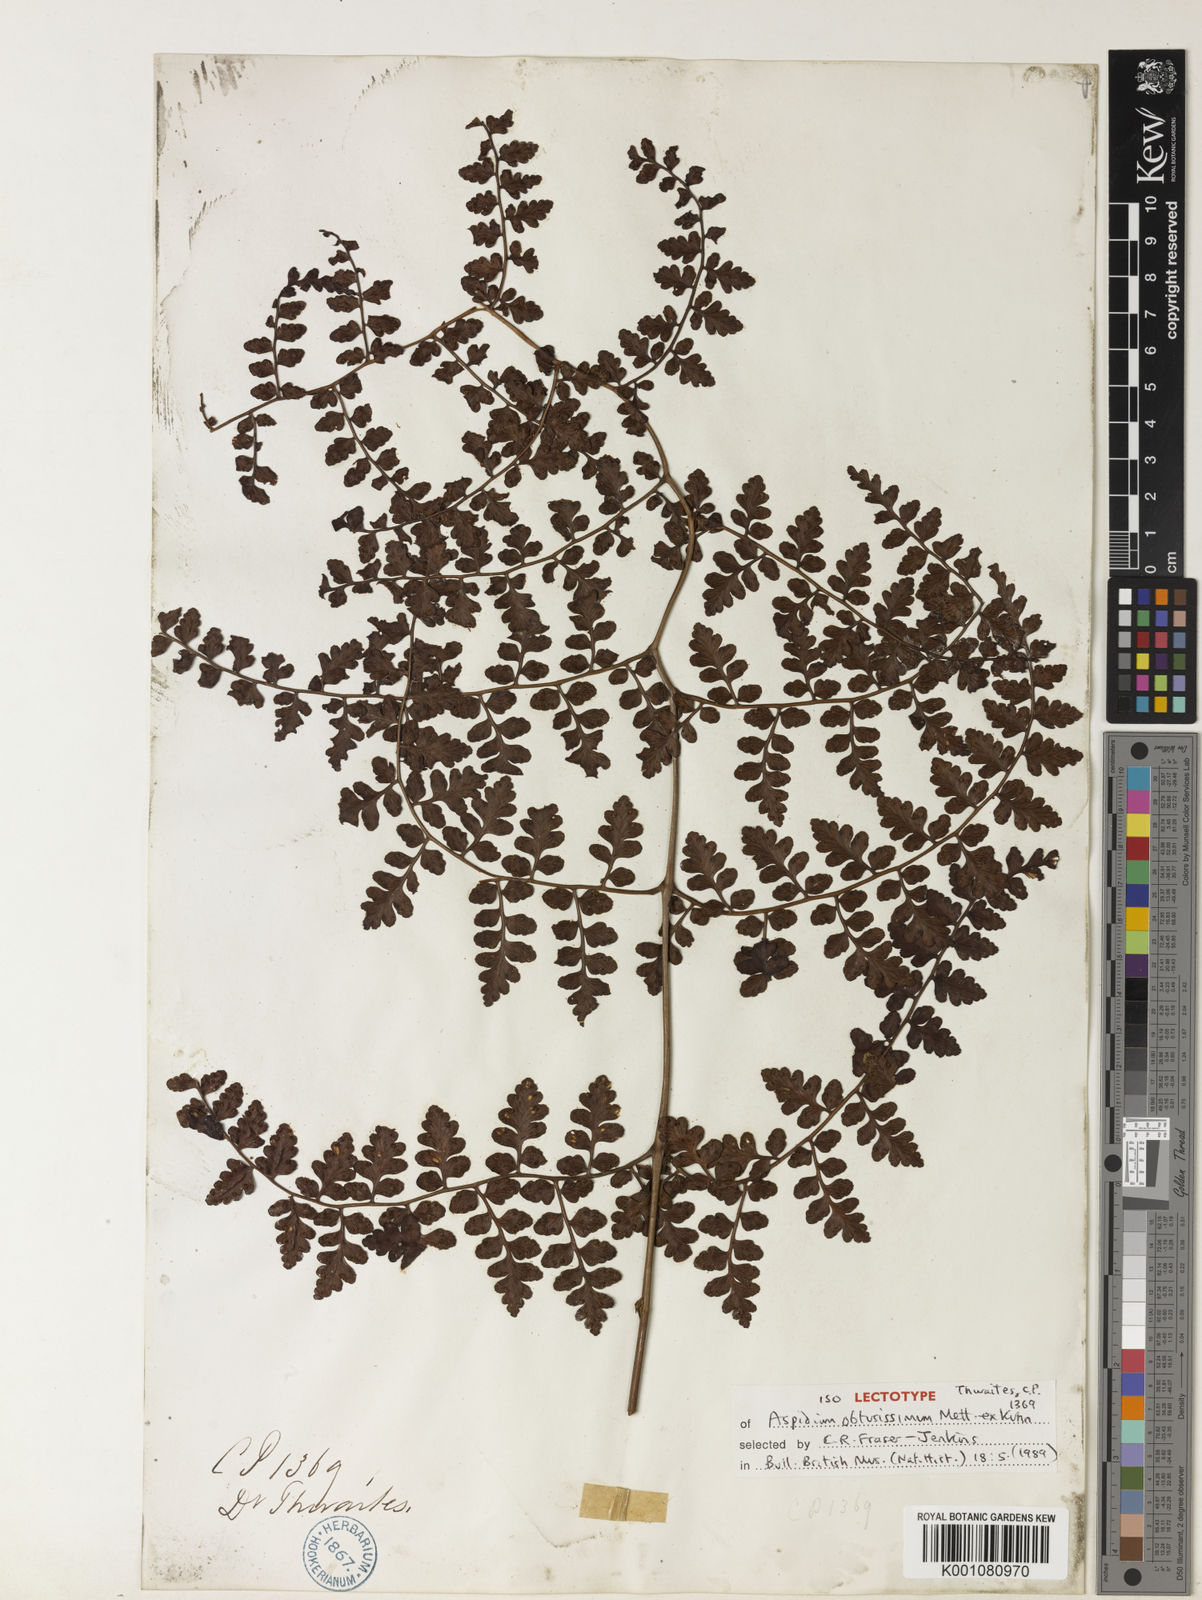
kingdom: Plantae
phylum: Tracheophyta
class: Polypodiopsida
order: Polypodiales
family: Dryopteridaceae
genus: Dryopteris
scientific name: Dryopteris
